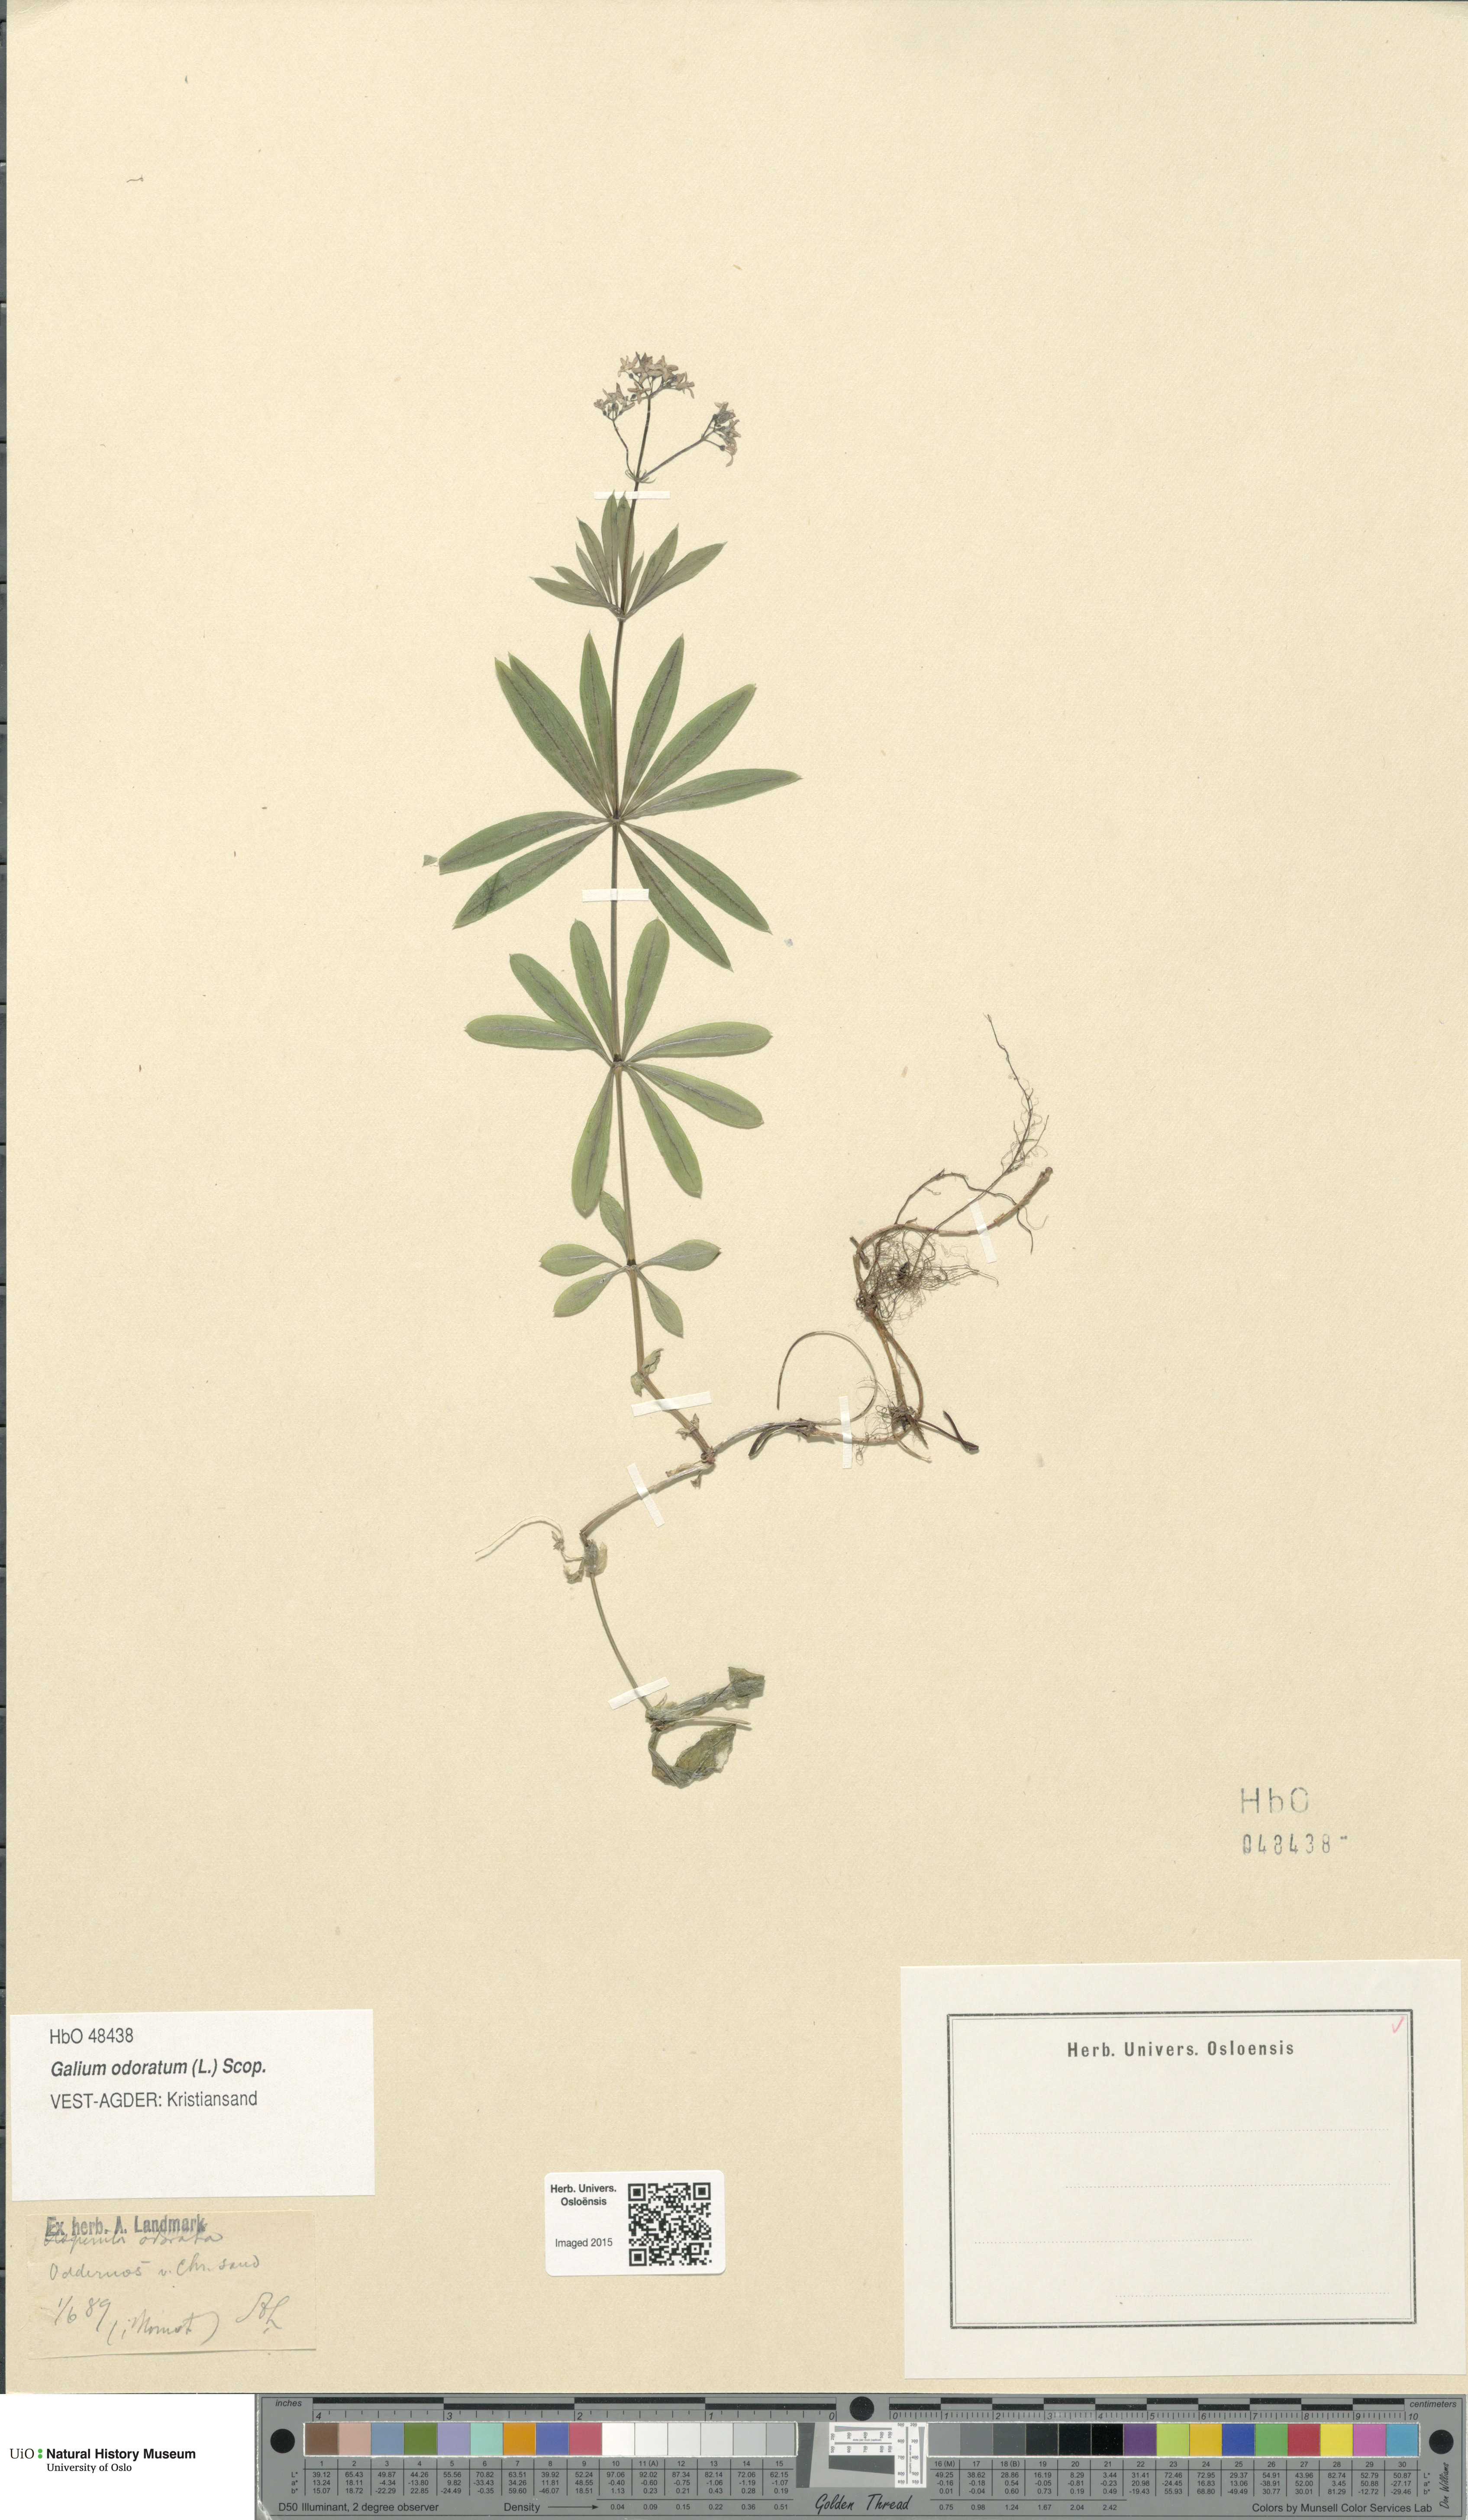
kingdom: Plantae
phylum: Tracheophyta
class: Magnoliopsida
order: Gentianales
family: Rubiaceae
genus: Galium
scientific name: Galium odoratum
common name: Sweet woodruff
